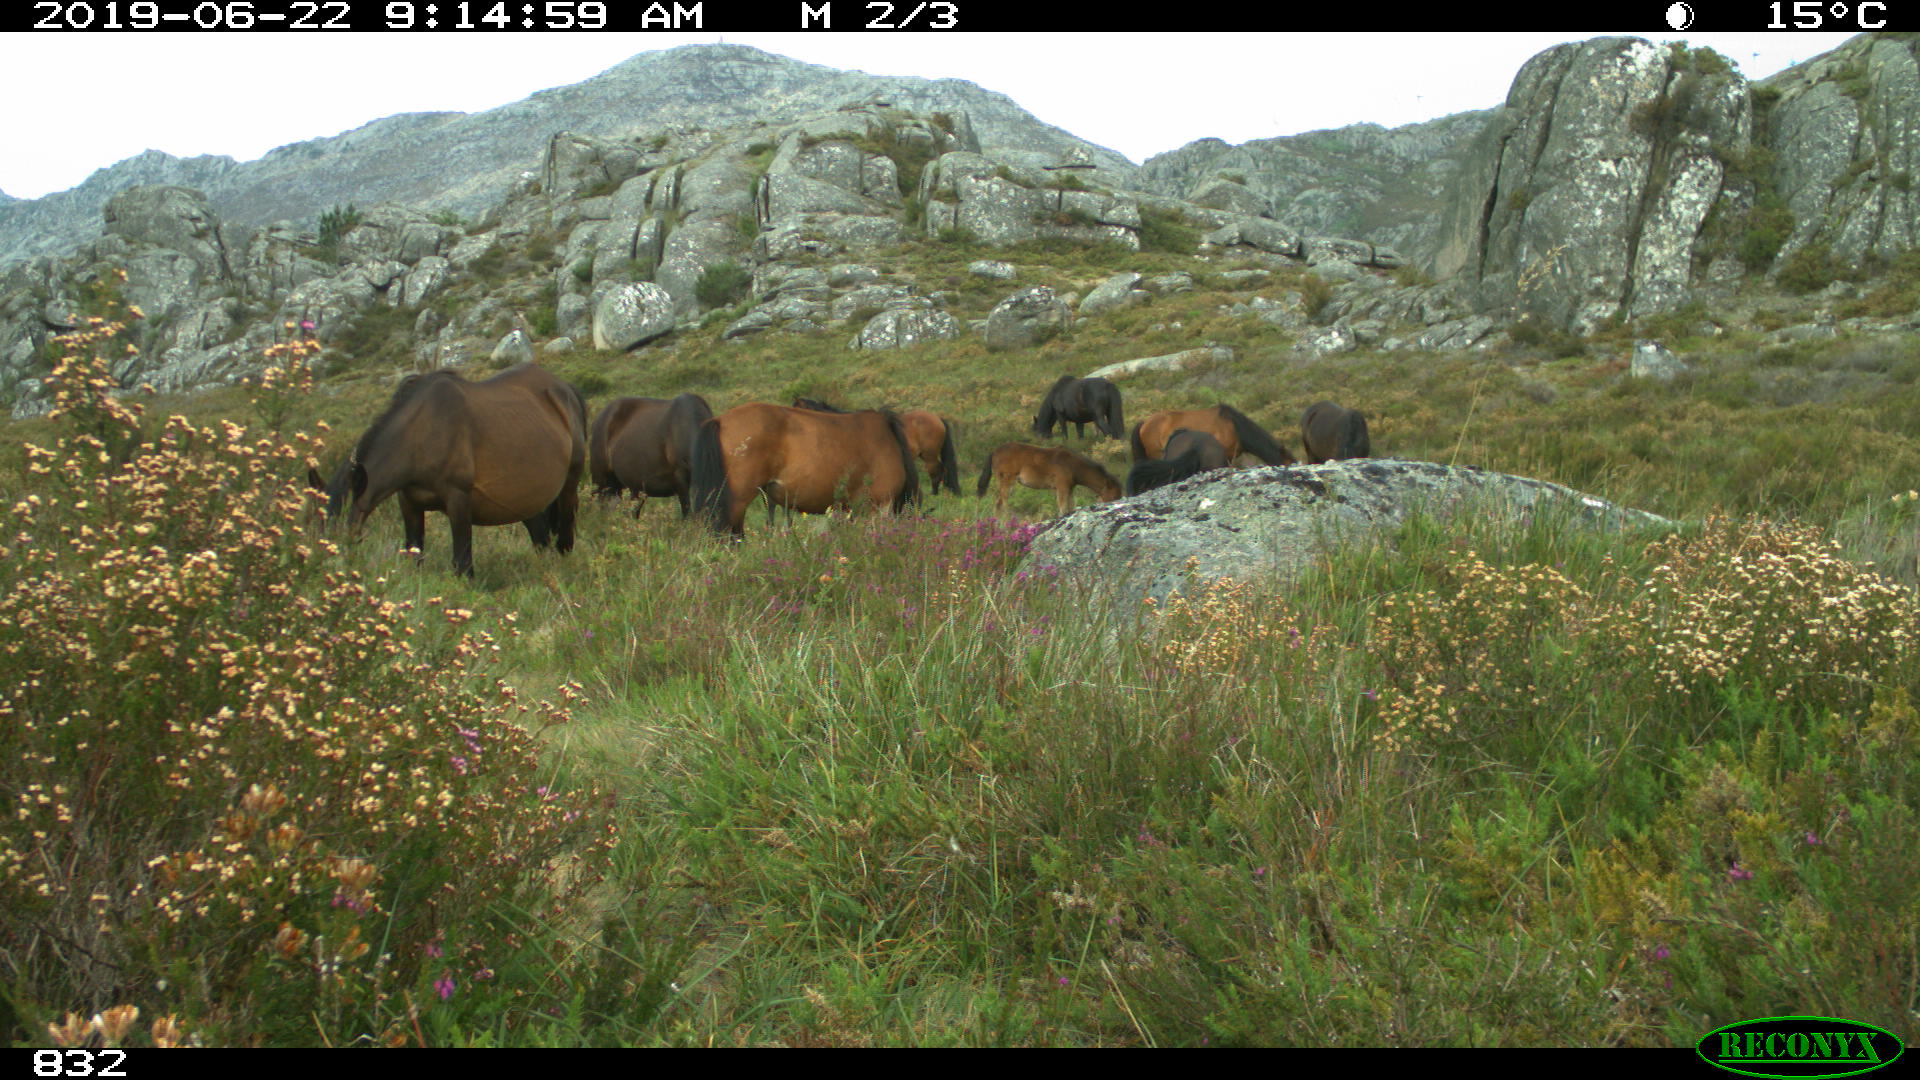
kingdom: Animalia
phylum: Chordata
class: Mammalia
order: Perissodactyla
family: Equidae
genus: Equus
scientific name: Equus caballus
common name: Horse
